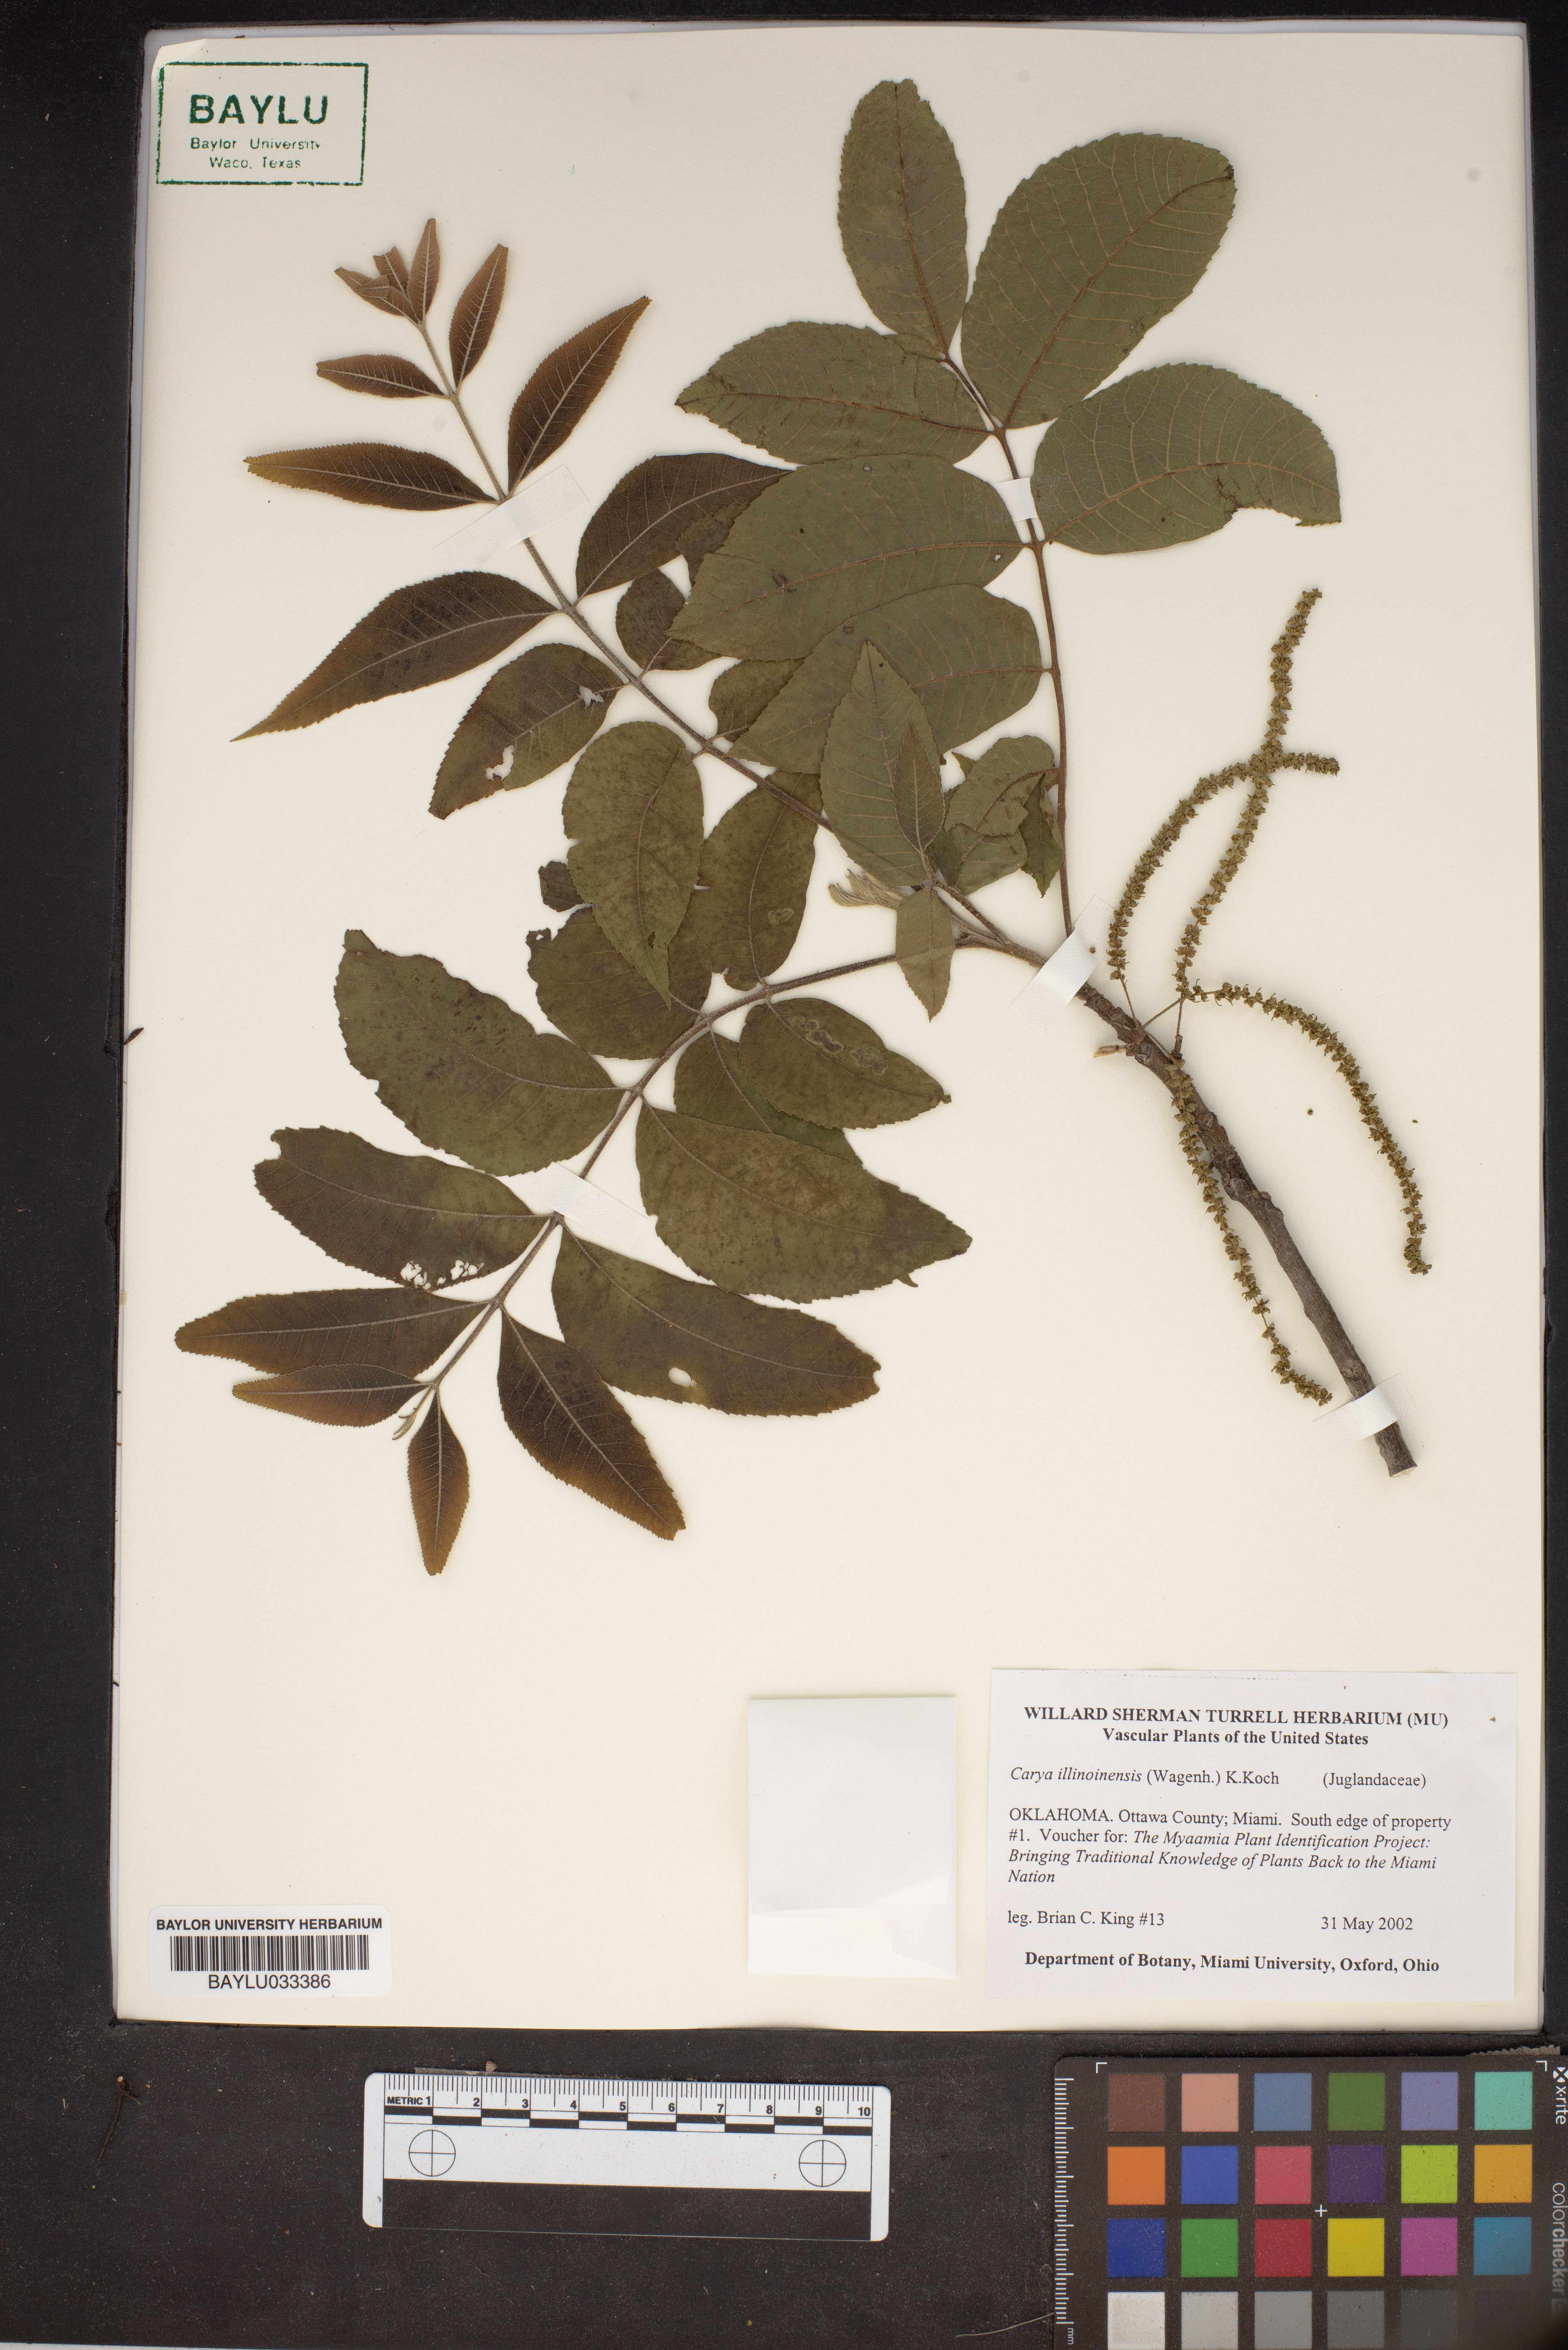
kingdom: Plantae
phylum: Tracheophyta
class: Magnoliopsida
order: Fagales
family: Juglandaceae
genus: Carya
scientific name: Carya illinoinensis
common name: Pecan
